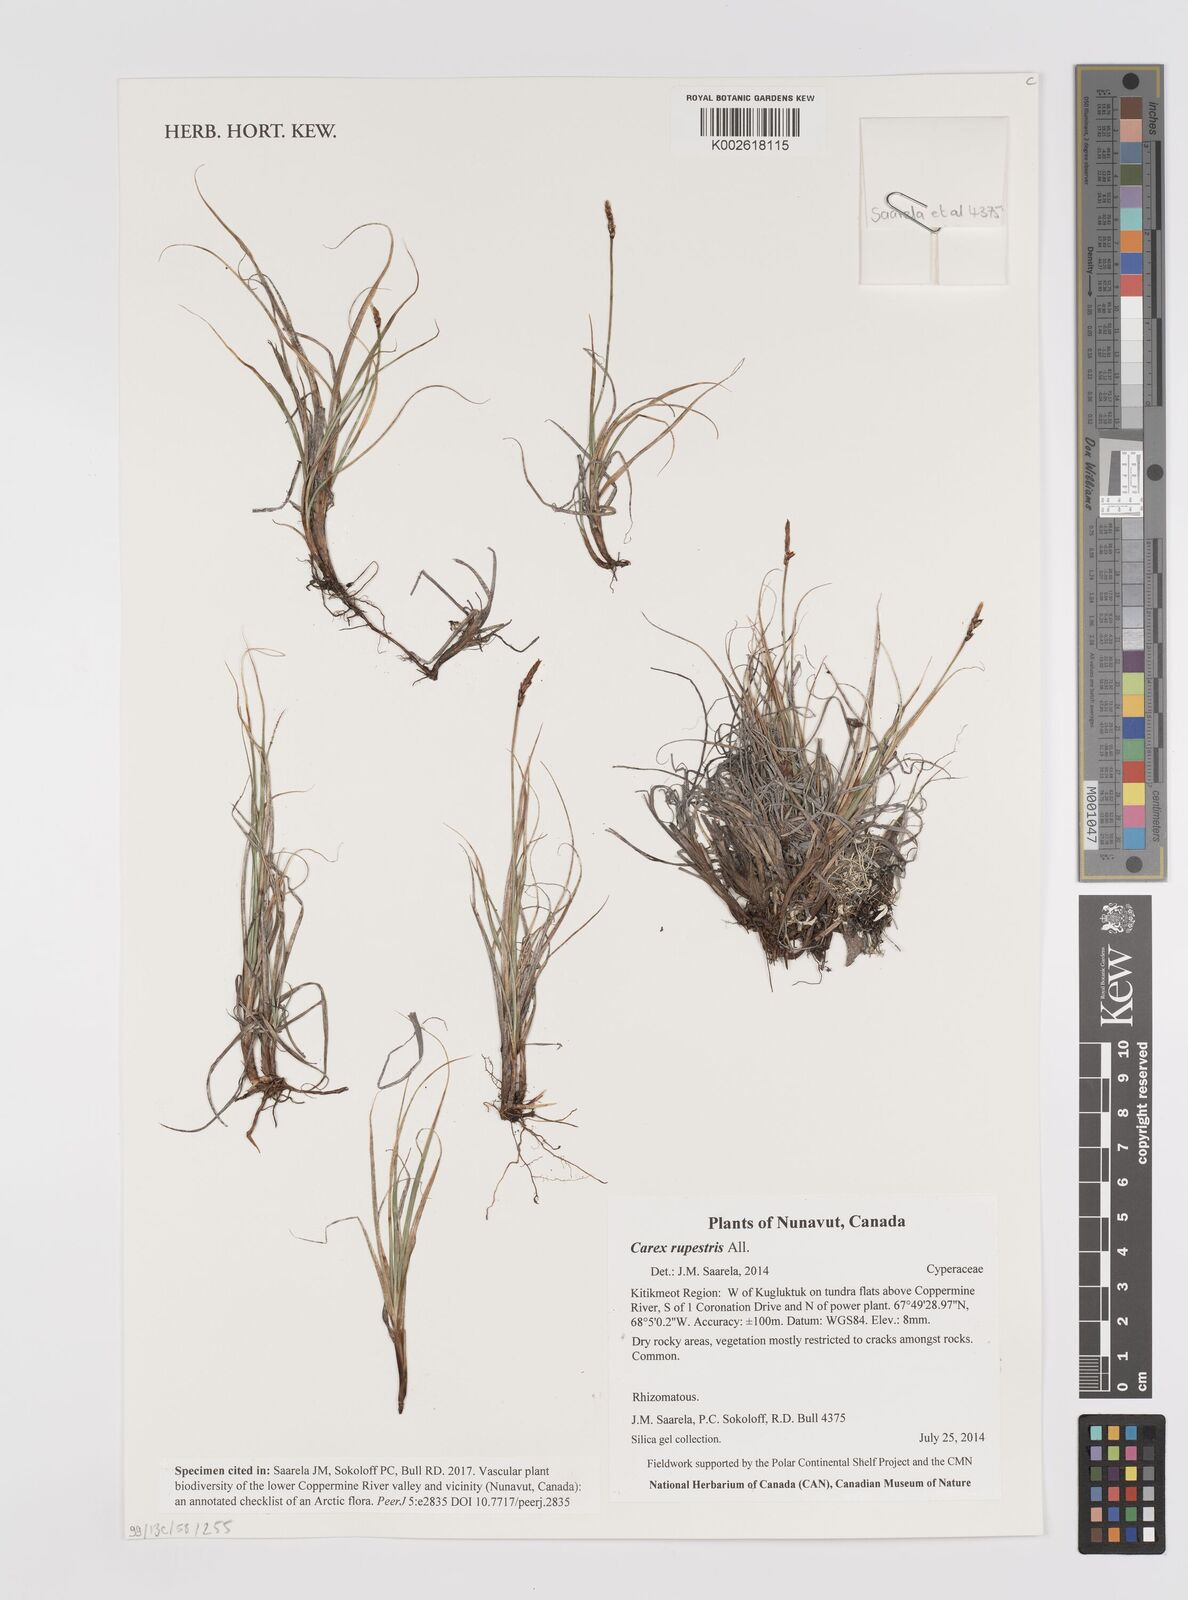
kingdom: Plantae
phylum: Tracheophyta
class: Liliopsida
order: Poales
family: Cyperaceae
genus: Carex
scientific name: Carex rupestris
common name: Rock sedge
